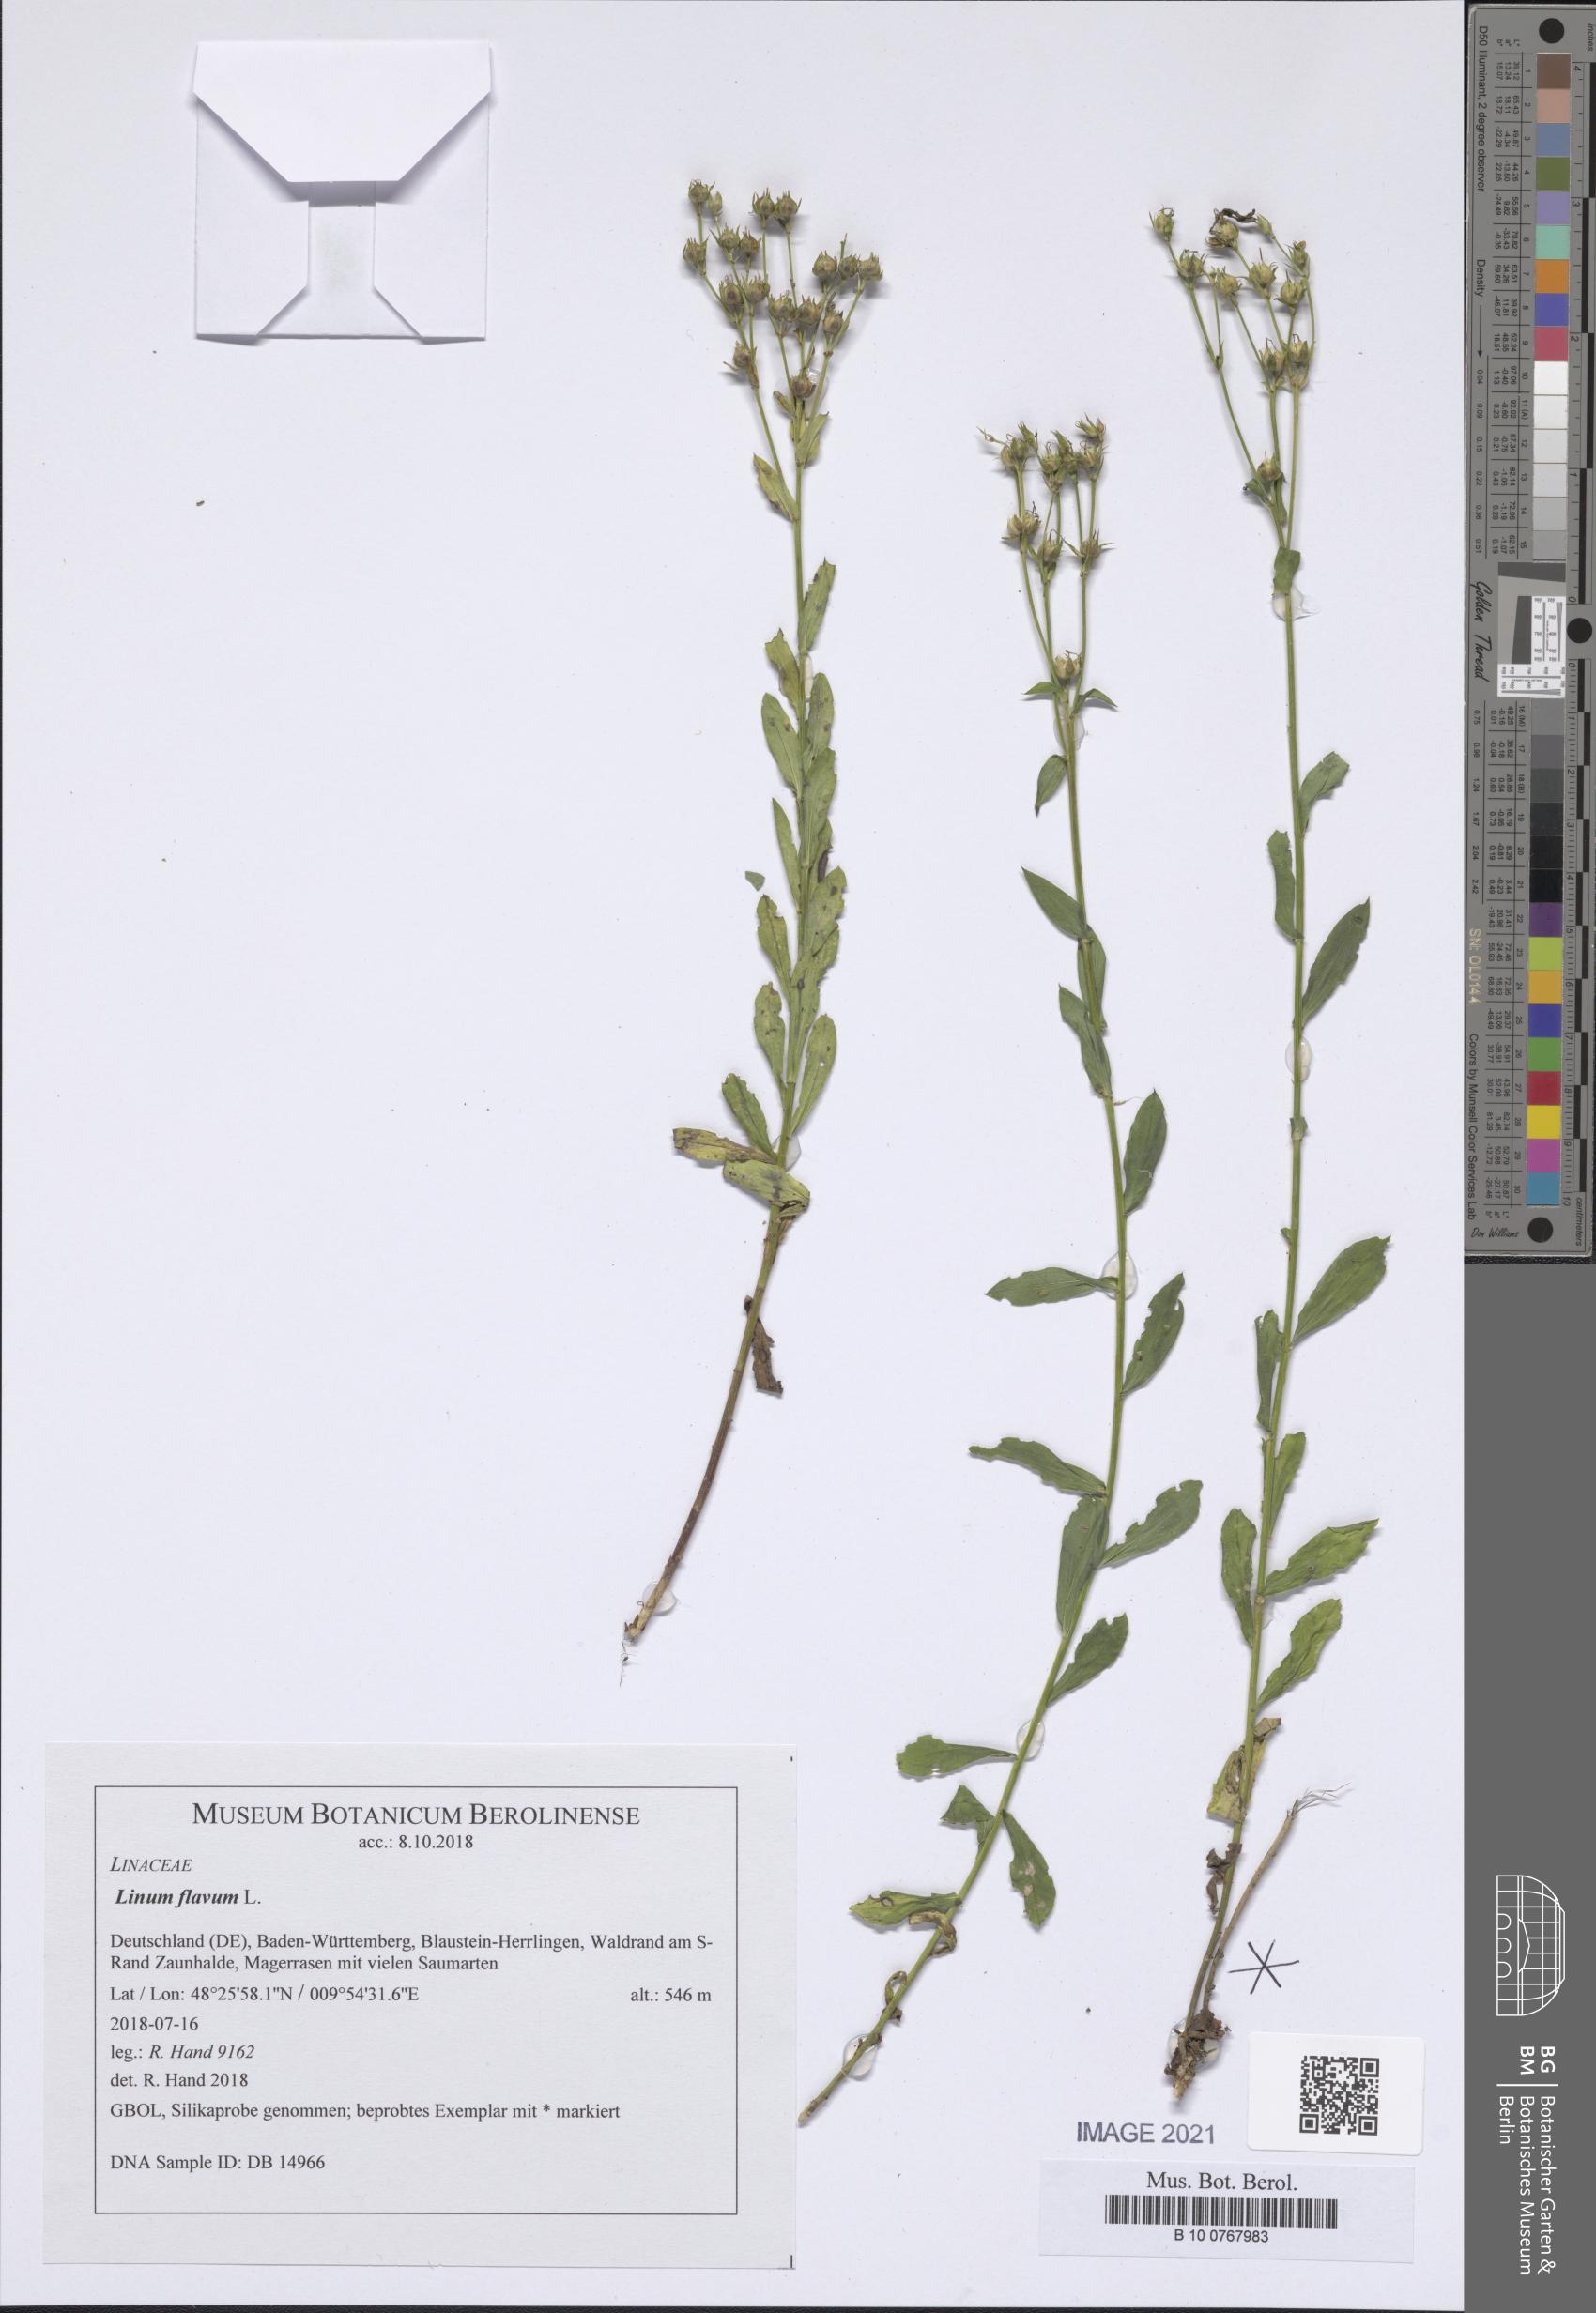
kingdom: Plantae
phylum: Tracheophyta
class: Magnoliopsida
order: Malpighiales
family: Linaceae
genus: Linum
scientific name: Linum flavum
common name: Yellow flax
